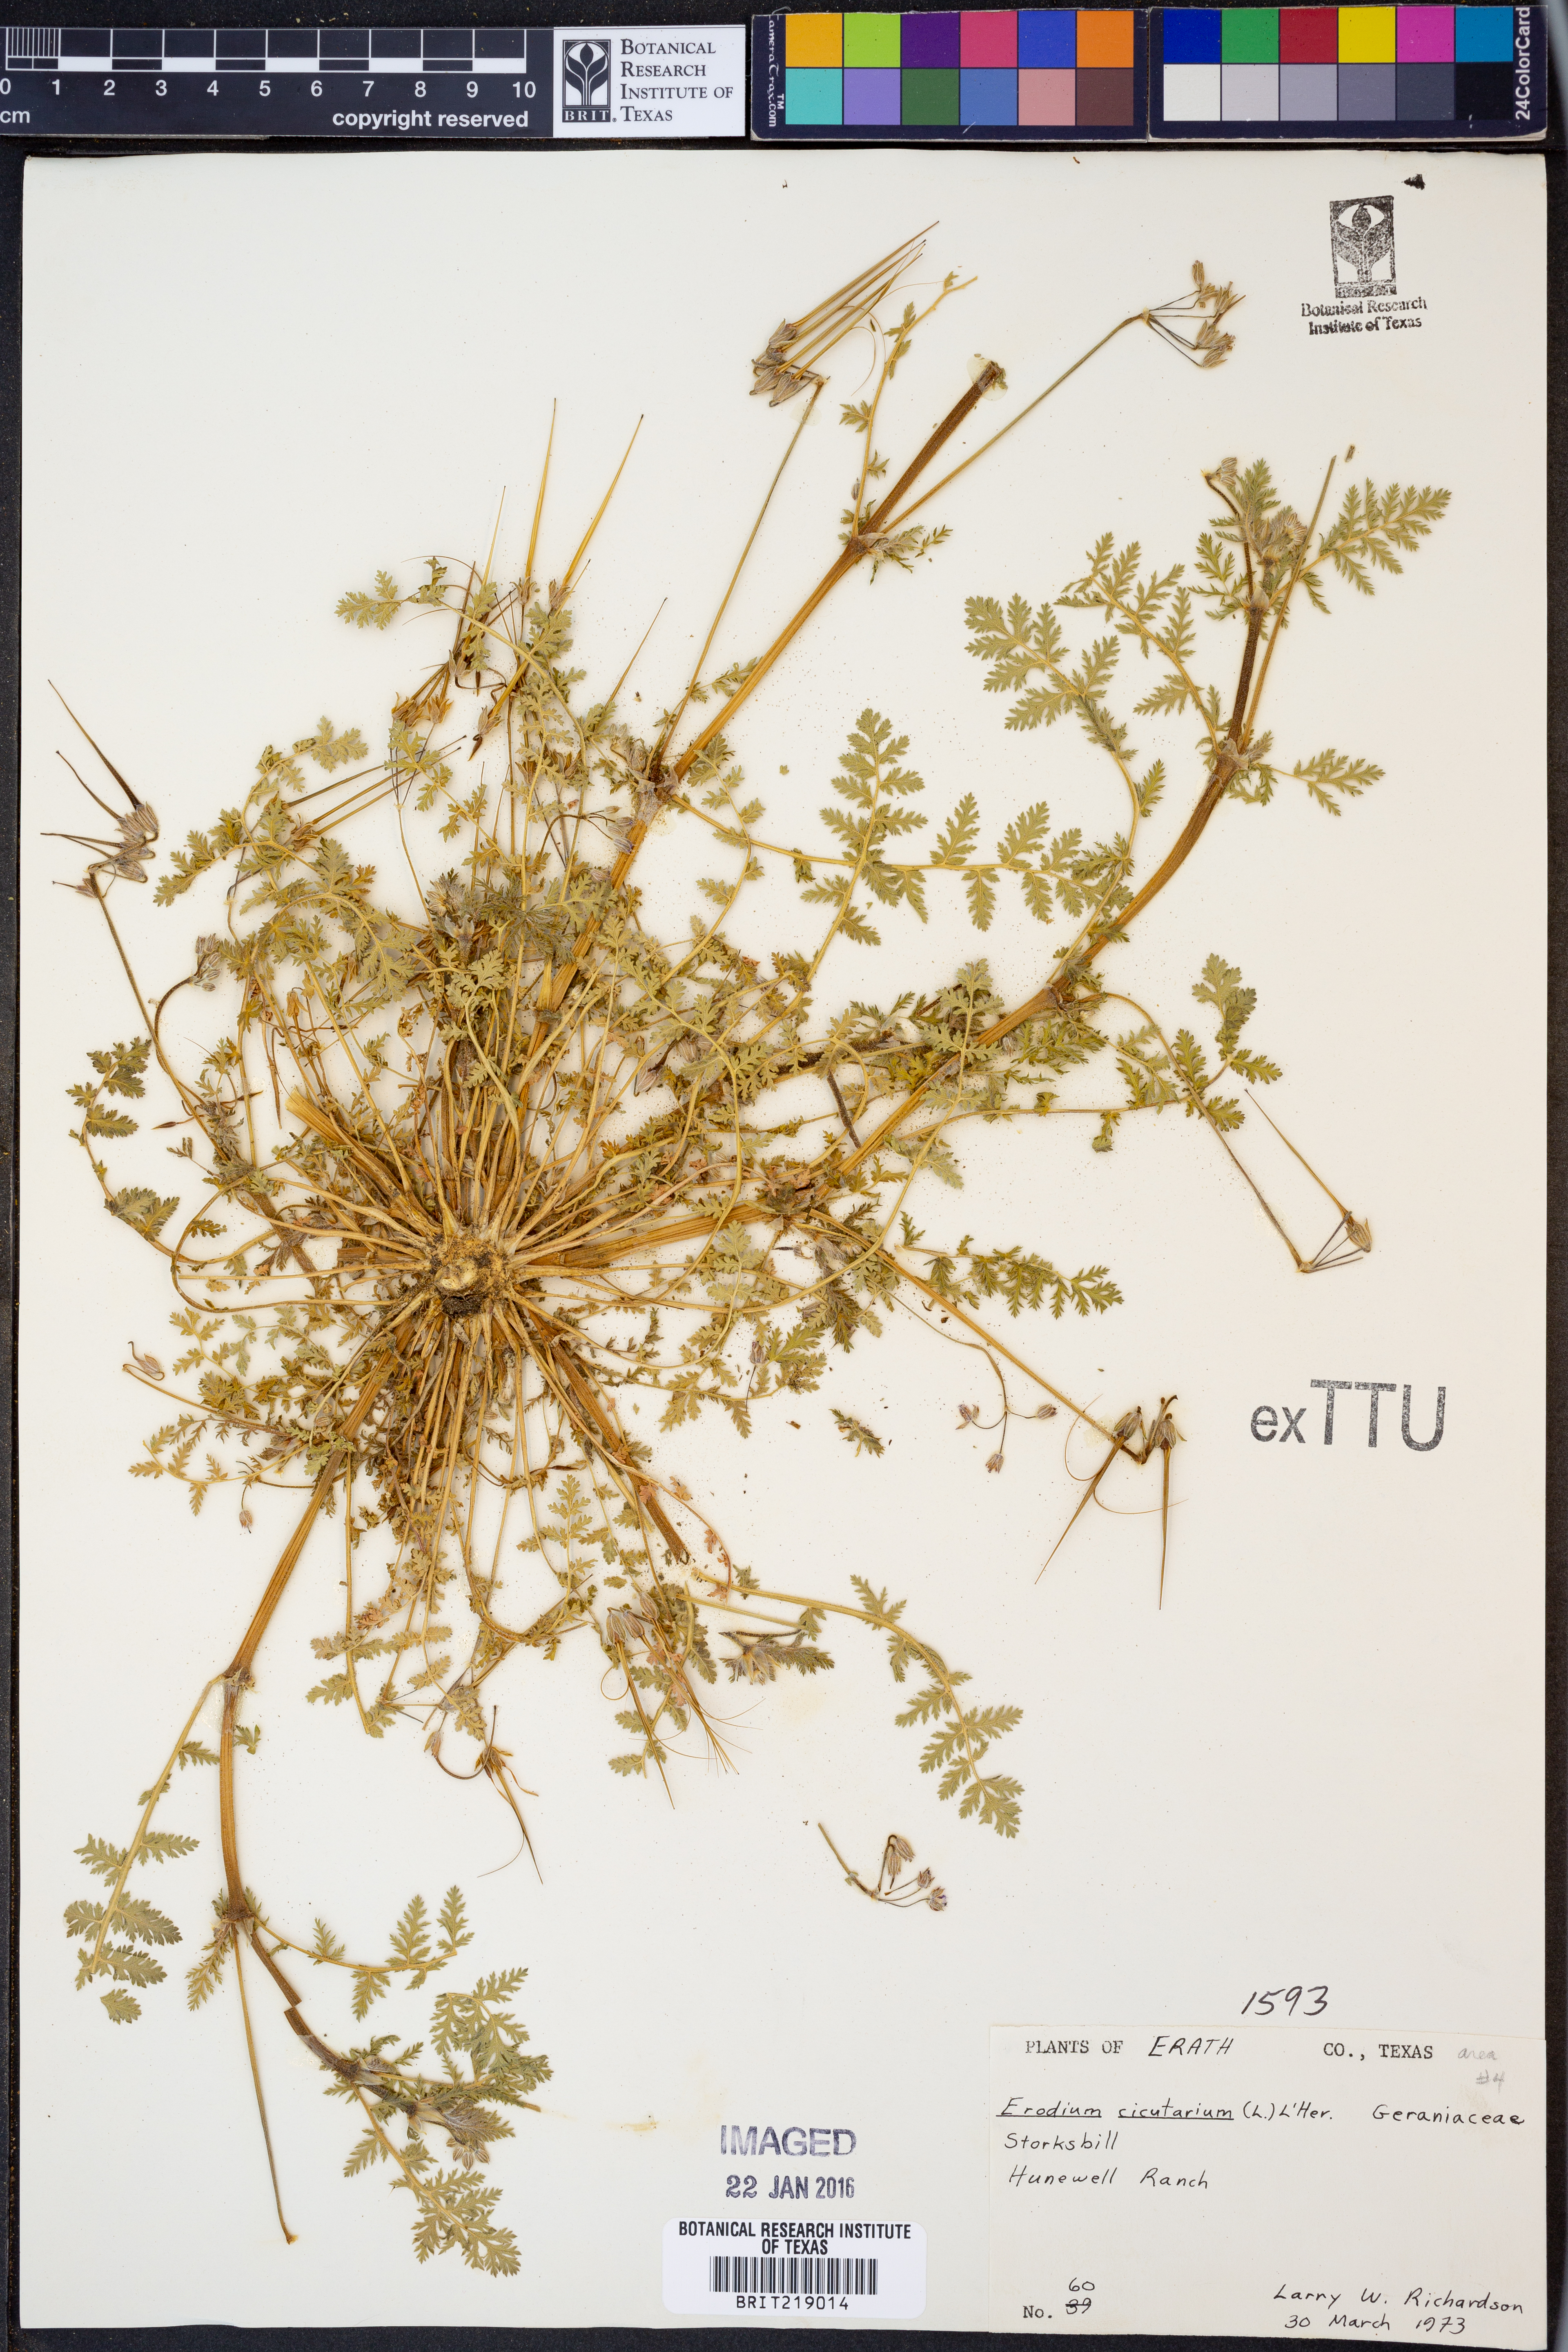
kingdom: Plantae
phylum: Tracheophyta
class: Magnoliopsida
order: Geraniales
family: Geraniaceae
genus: Erodium
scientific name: Erodium cicutarium
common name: Common stork's-bill
